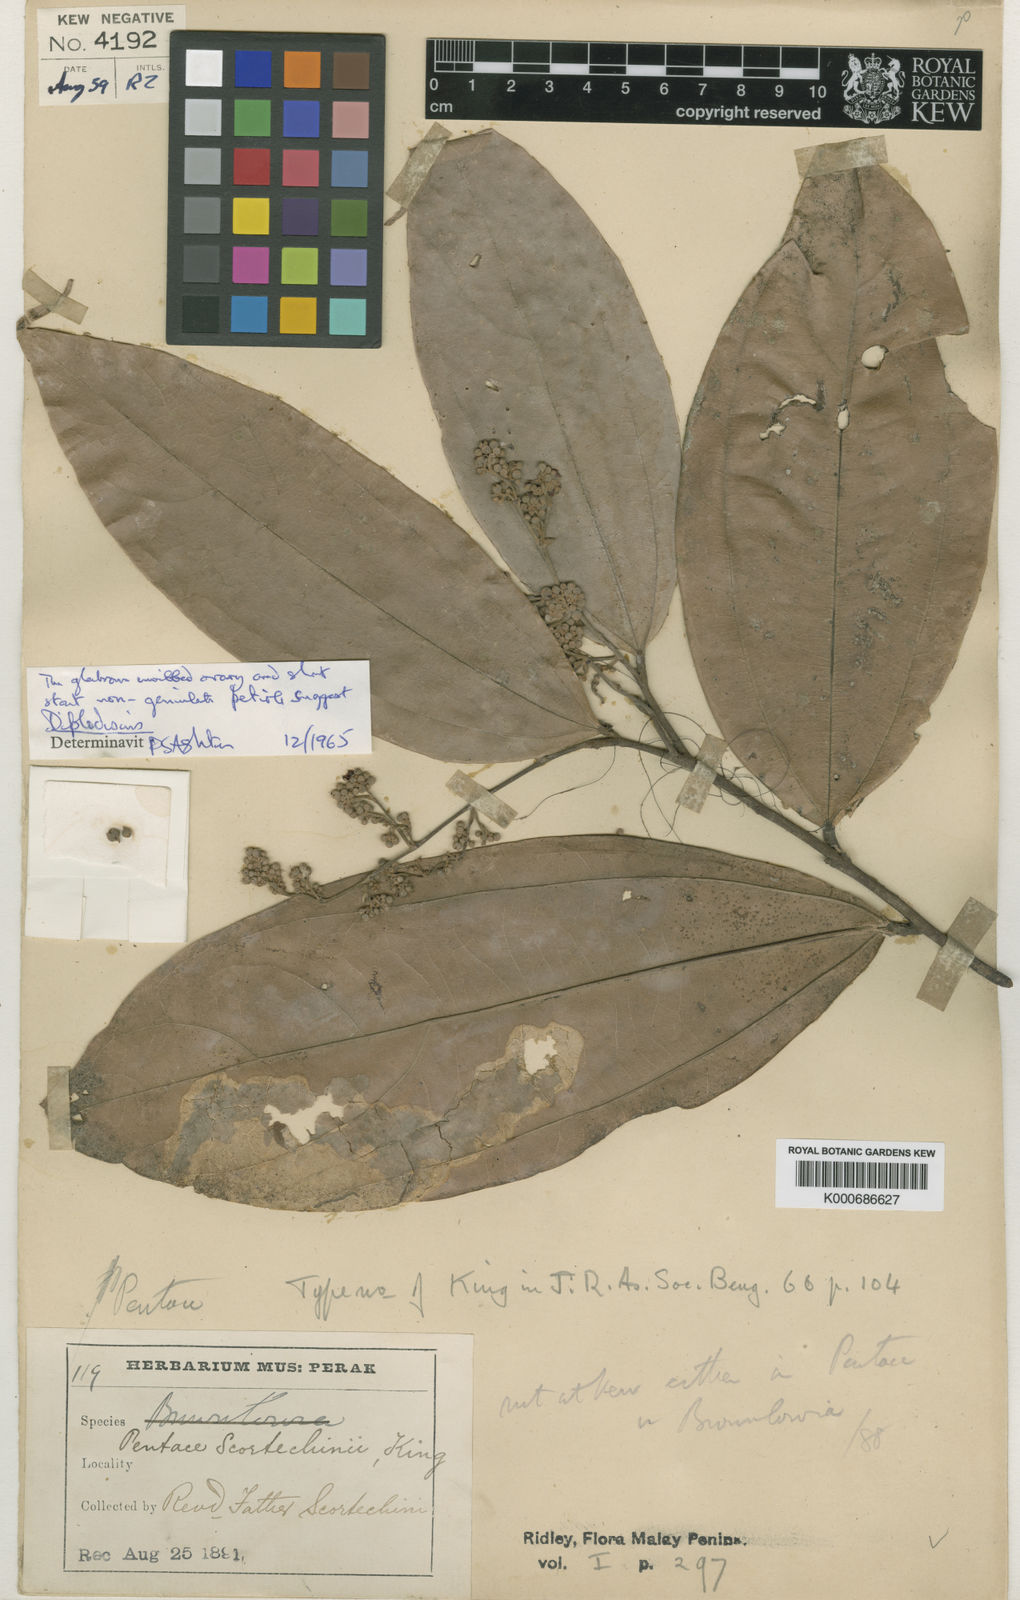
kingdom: Plantae
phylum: Tracheophyta
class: Magnoliopsida
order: Malvales
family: Malvaceae
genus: Diplodiscus
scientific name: Diplodiscus scortechinii
